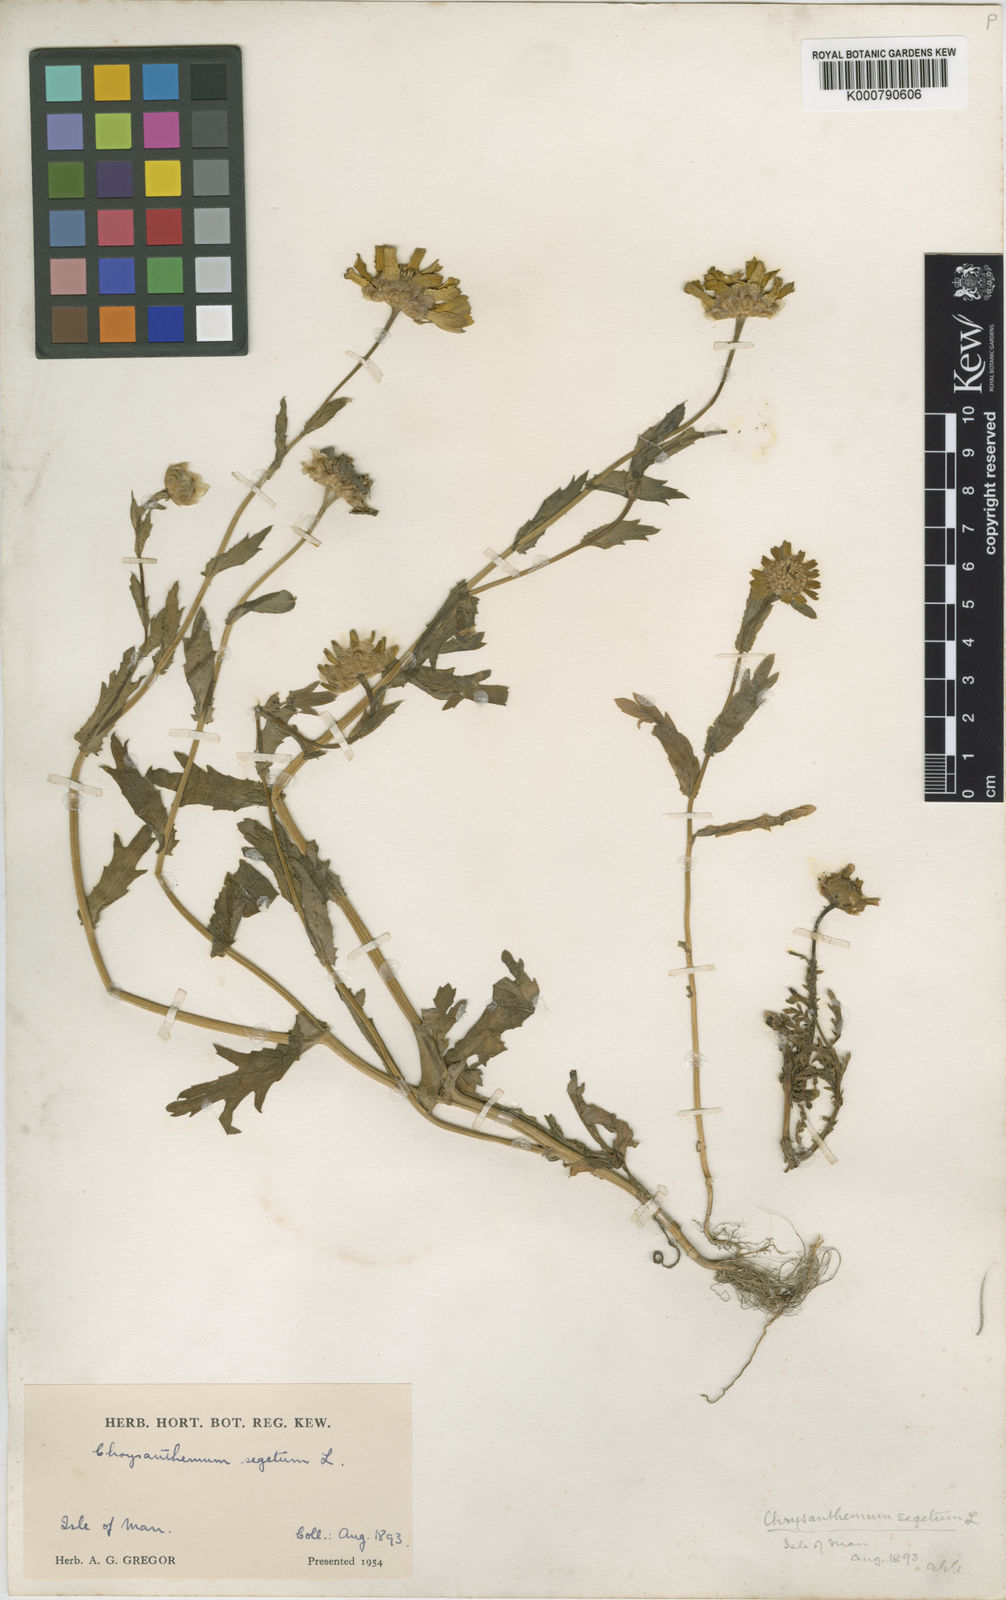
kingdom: Plantae
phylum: Tracheophyta
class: Magnoliopsida
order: Asterales
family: Asteraceae
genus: Glebionis
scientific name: Glebionis
